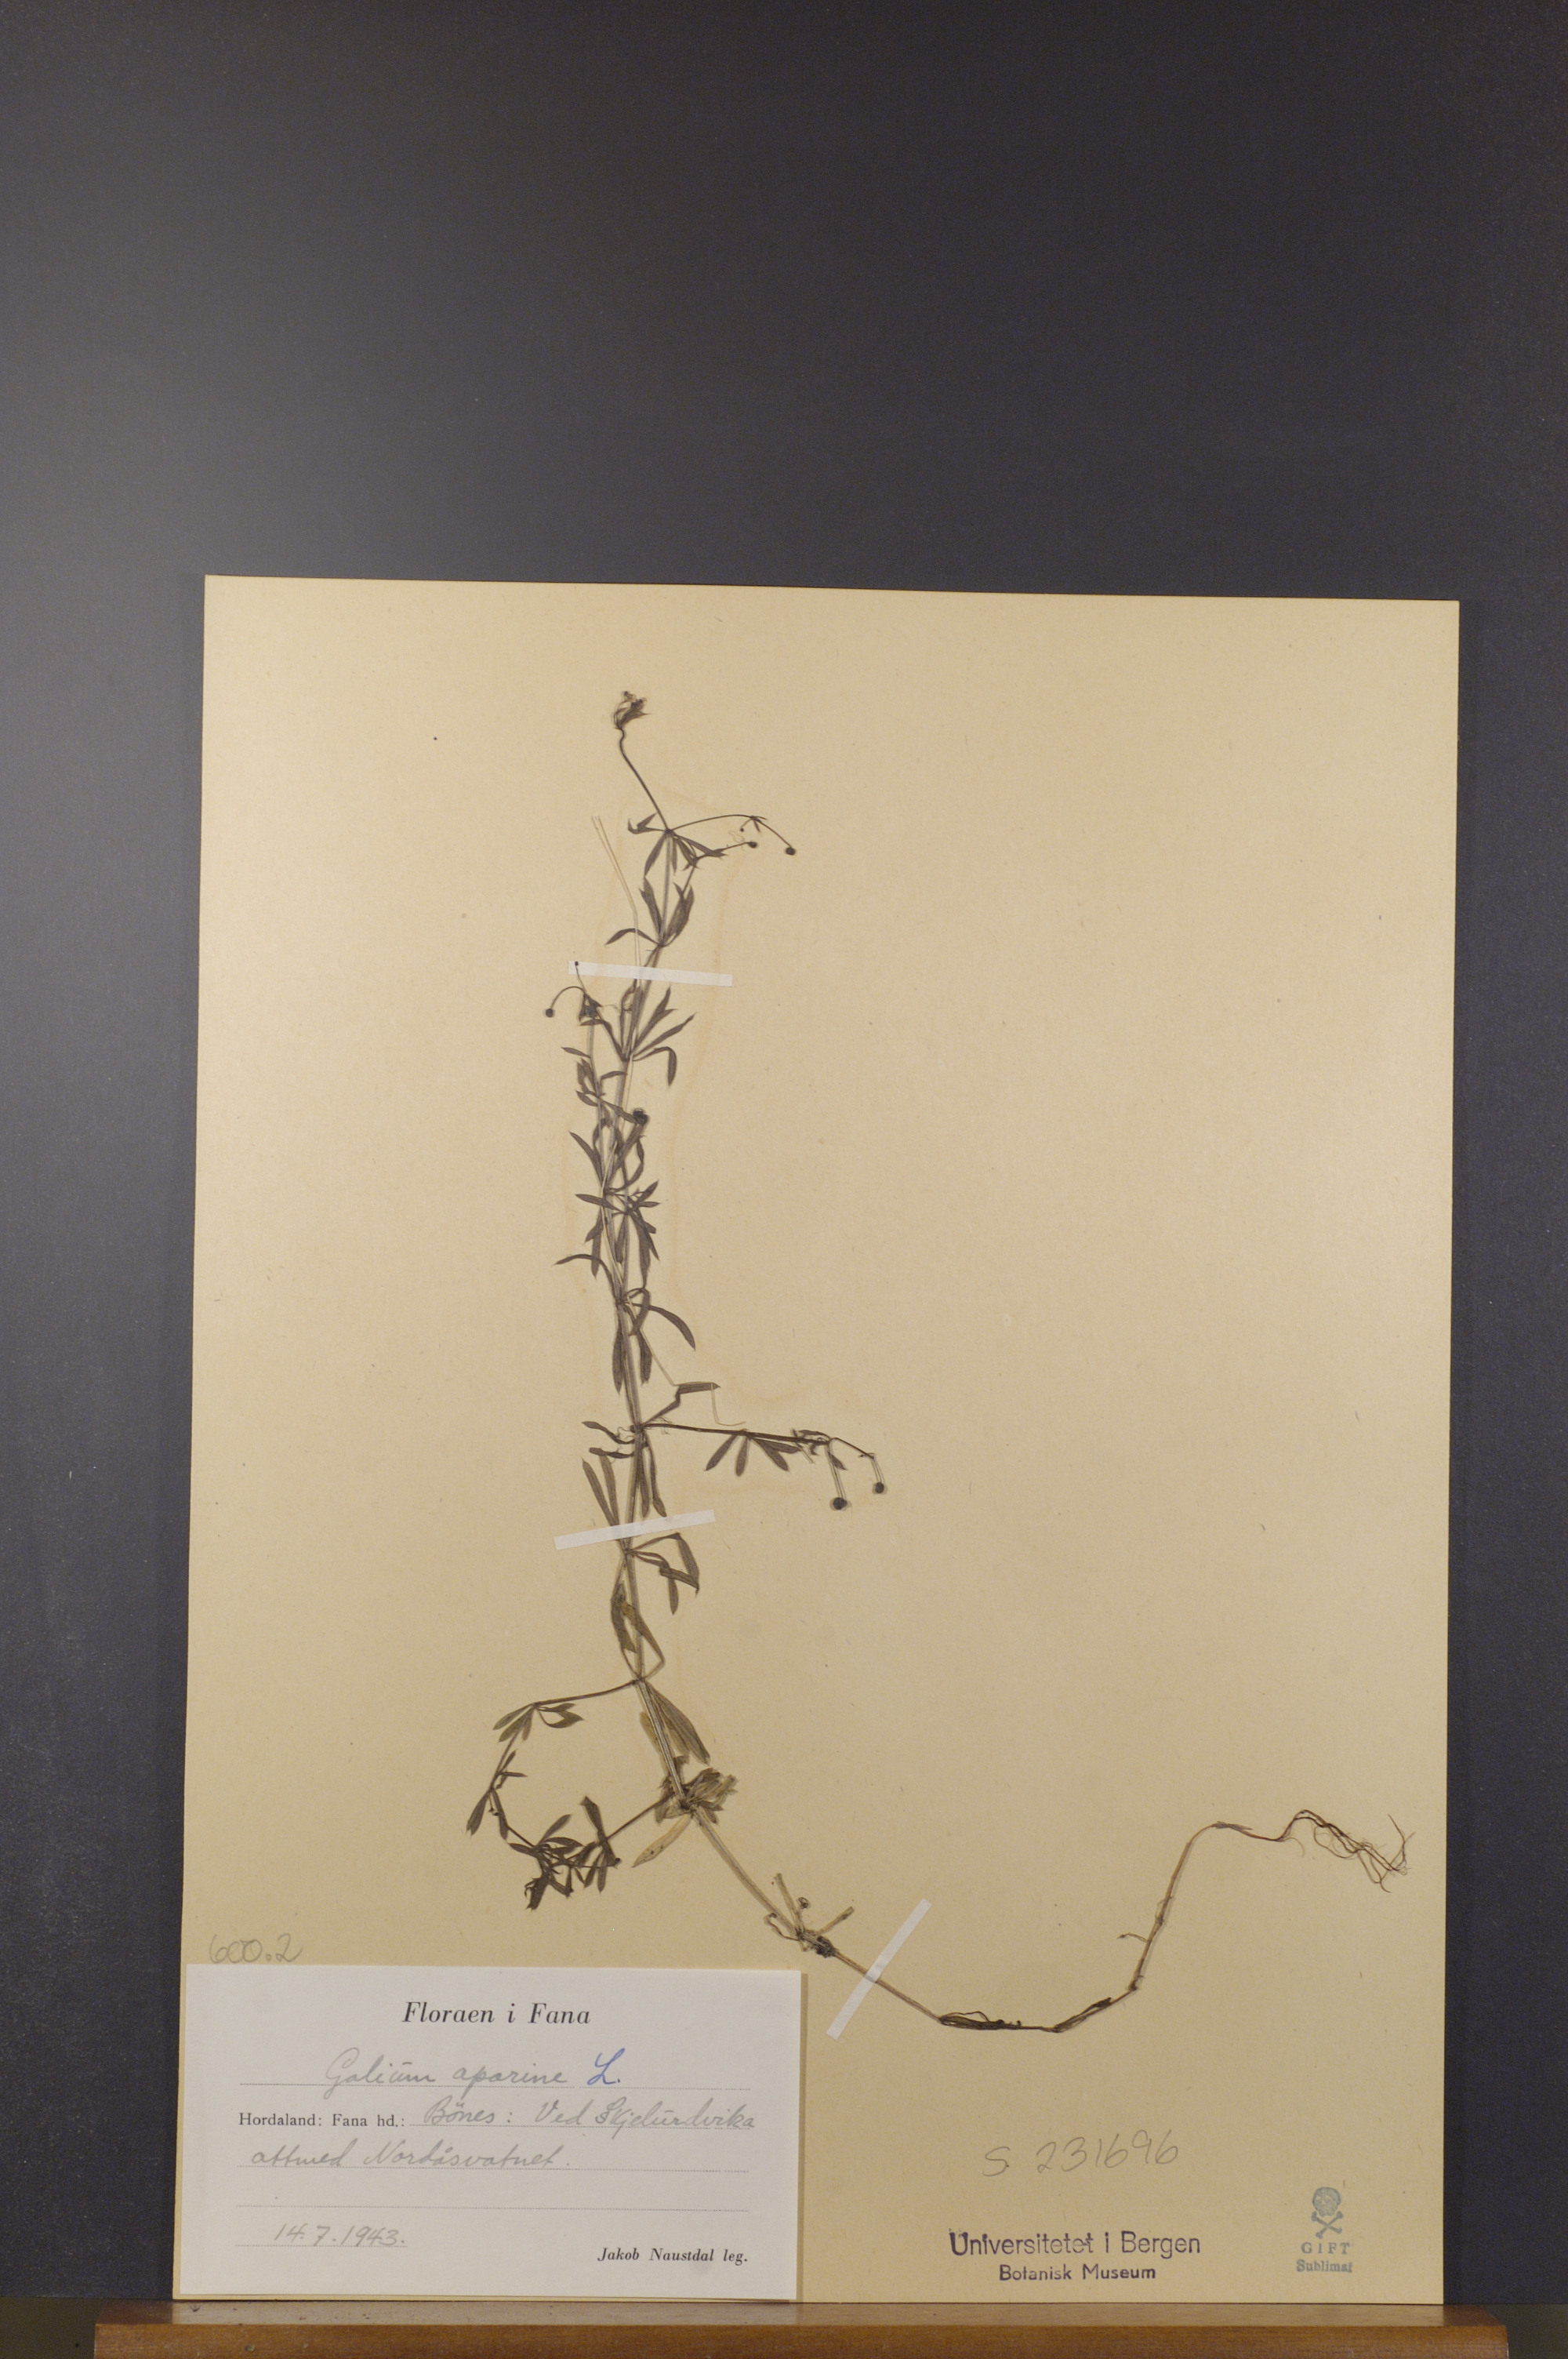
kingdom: Plantae
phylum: Tracheophyta
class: Magnoliopsida
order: Gentianales
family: Rubiaceae
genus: Galium
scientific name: Galium aparine
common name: Cleavers
